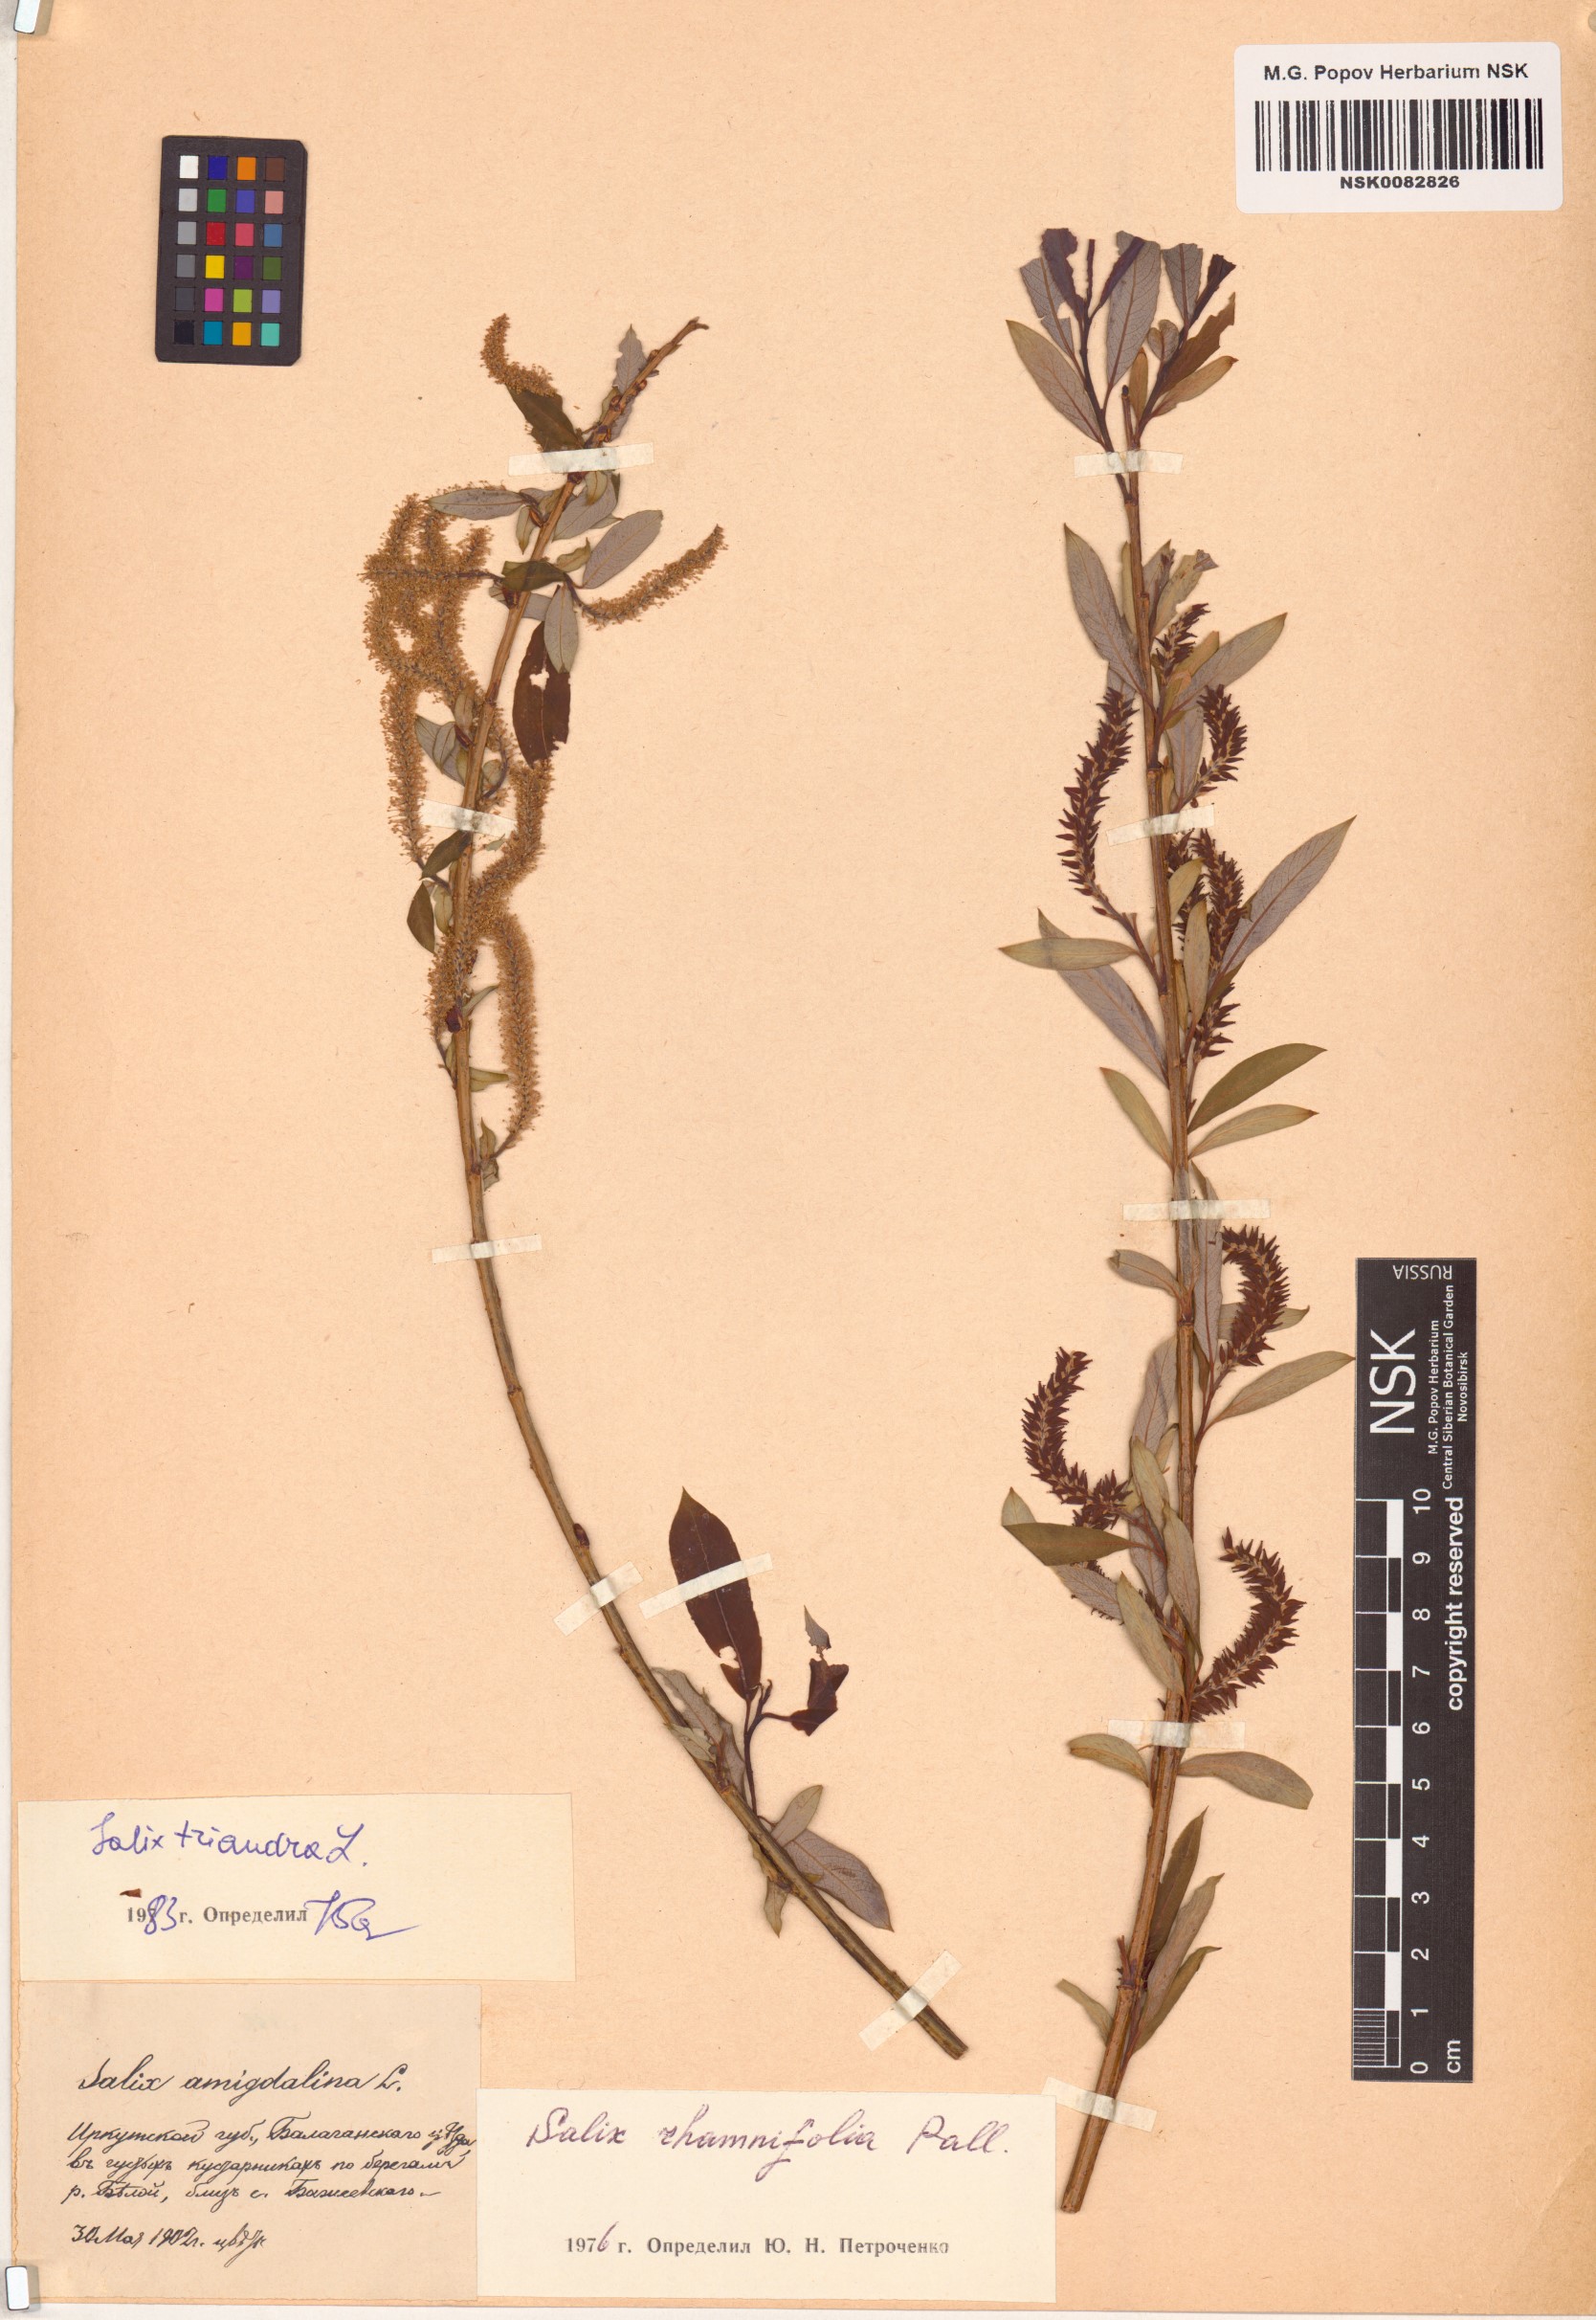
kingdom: Plantae
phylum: Tracheophyta
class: Magnoliopsida
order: Malpighiales
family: Salicaceae
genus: Salix
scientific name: Salix triandra
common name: Almond willow
